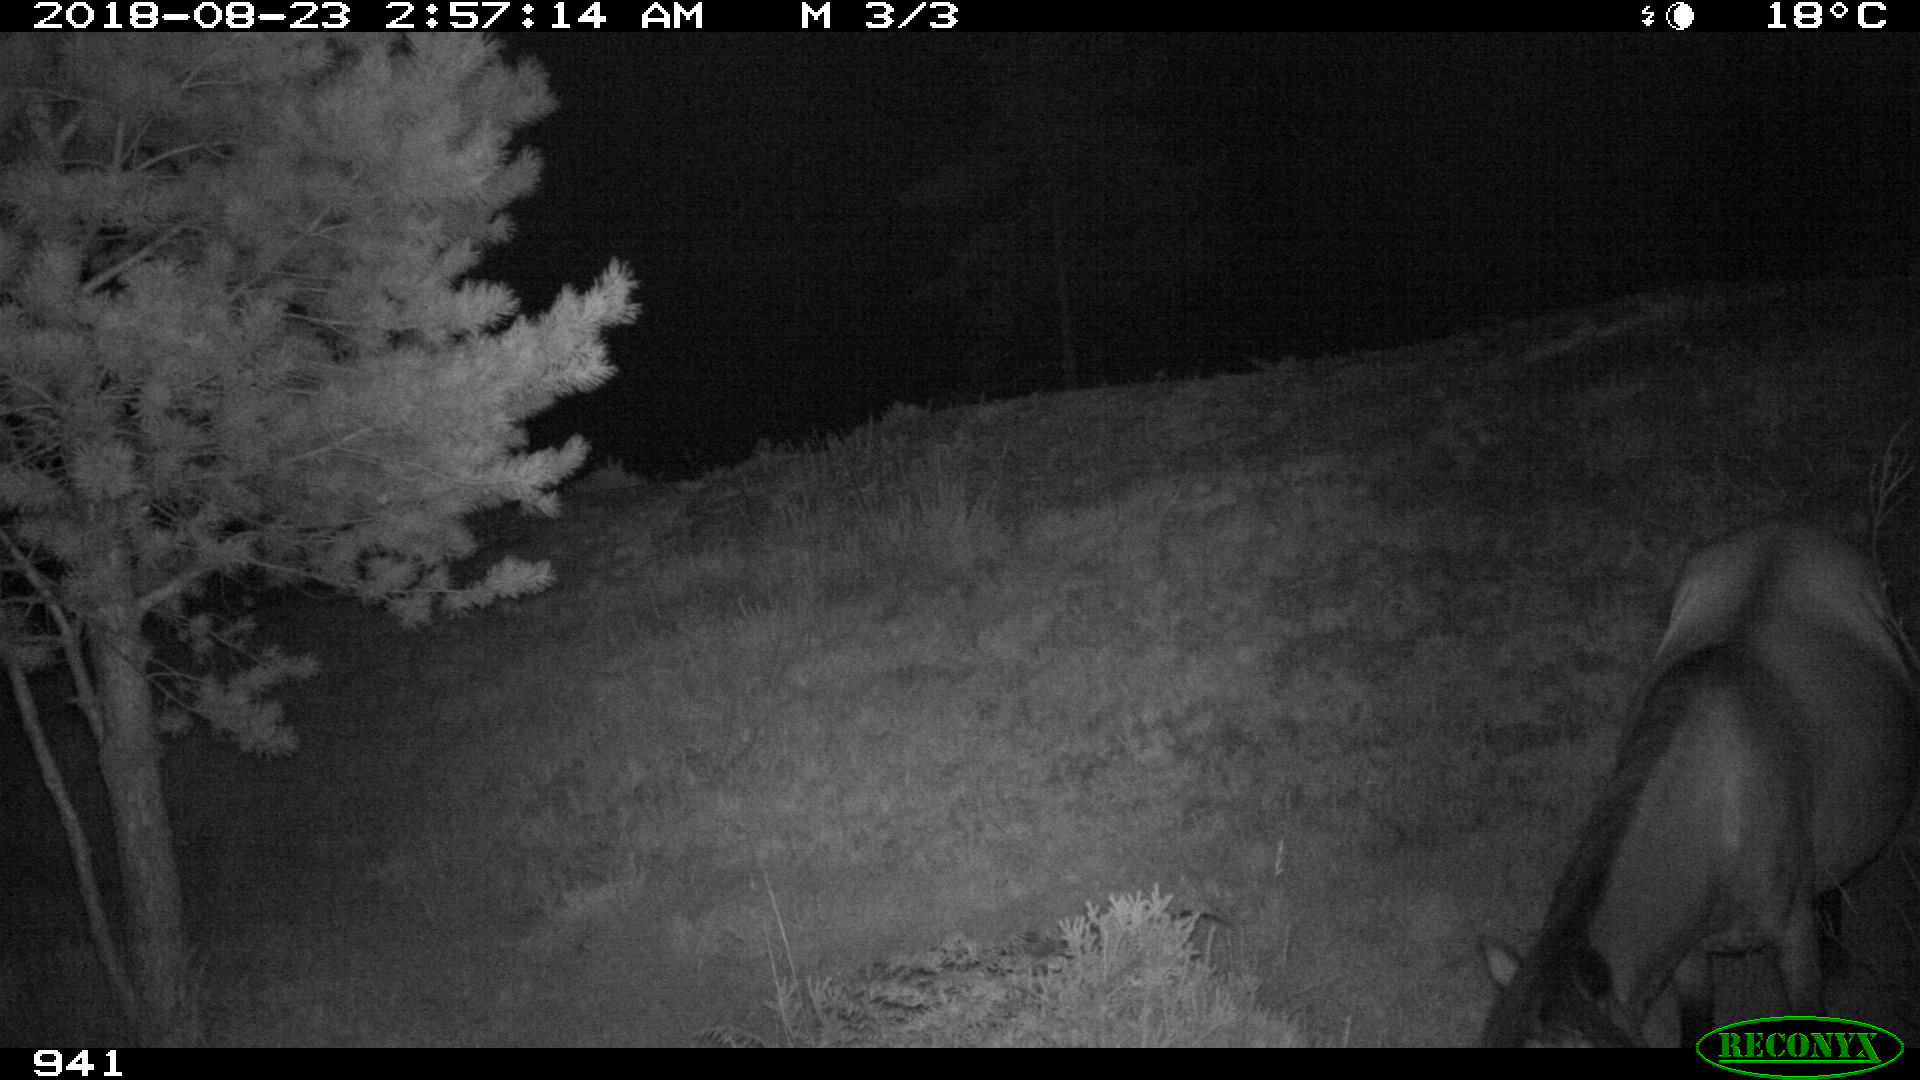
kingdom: Animalia
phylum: Chordata
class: Mammalia
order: Perissodactyla
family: Equidae
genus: Equus
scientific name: Equus caballus
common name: Horse
